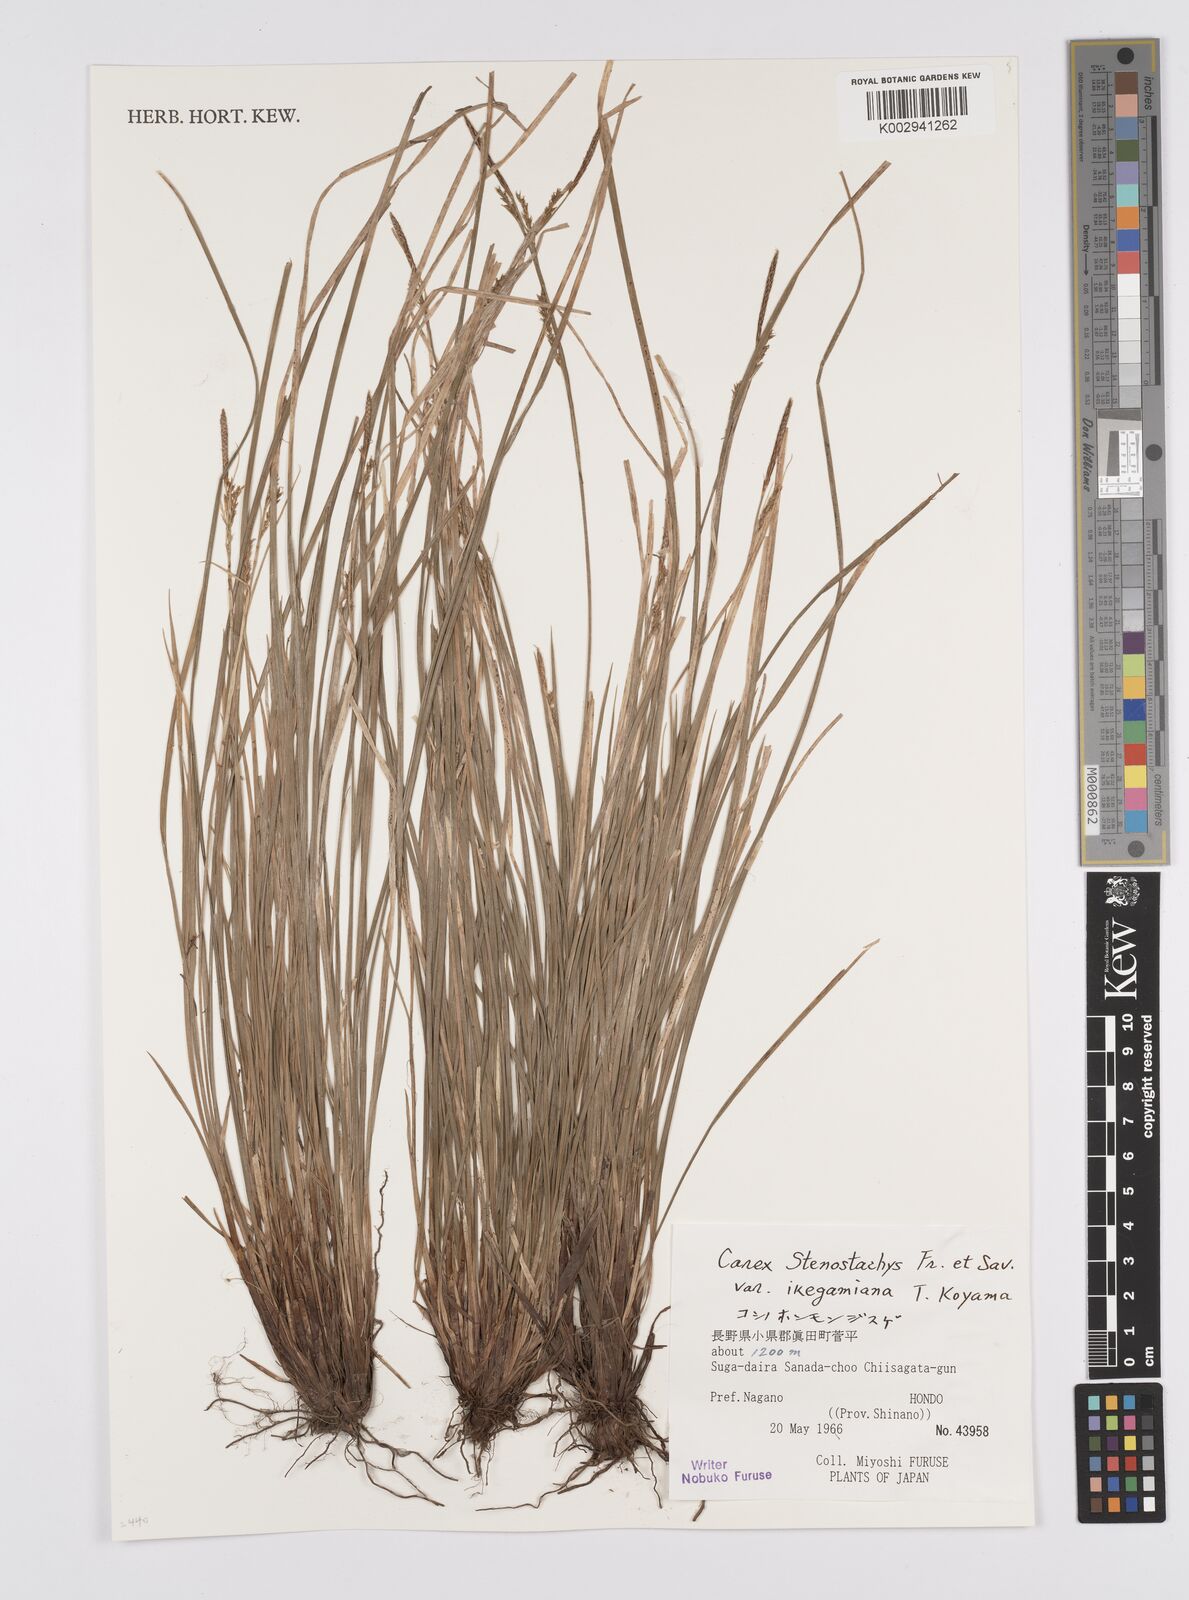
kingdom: Plantae
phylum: Tracheophyta
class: Liliopsida
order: Poales
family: Cyperaceae
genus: Carex
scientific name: Carex pisiformis
